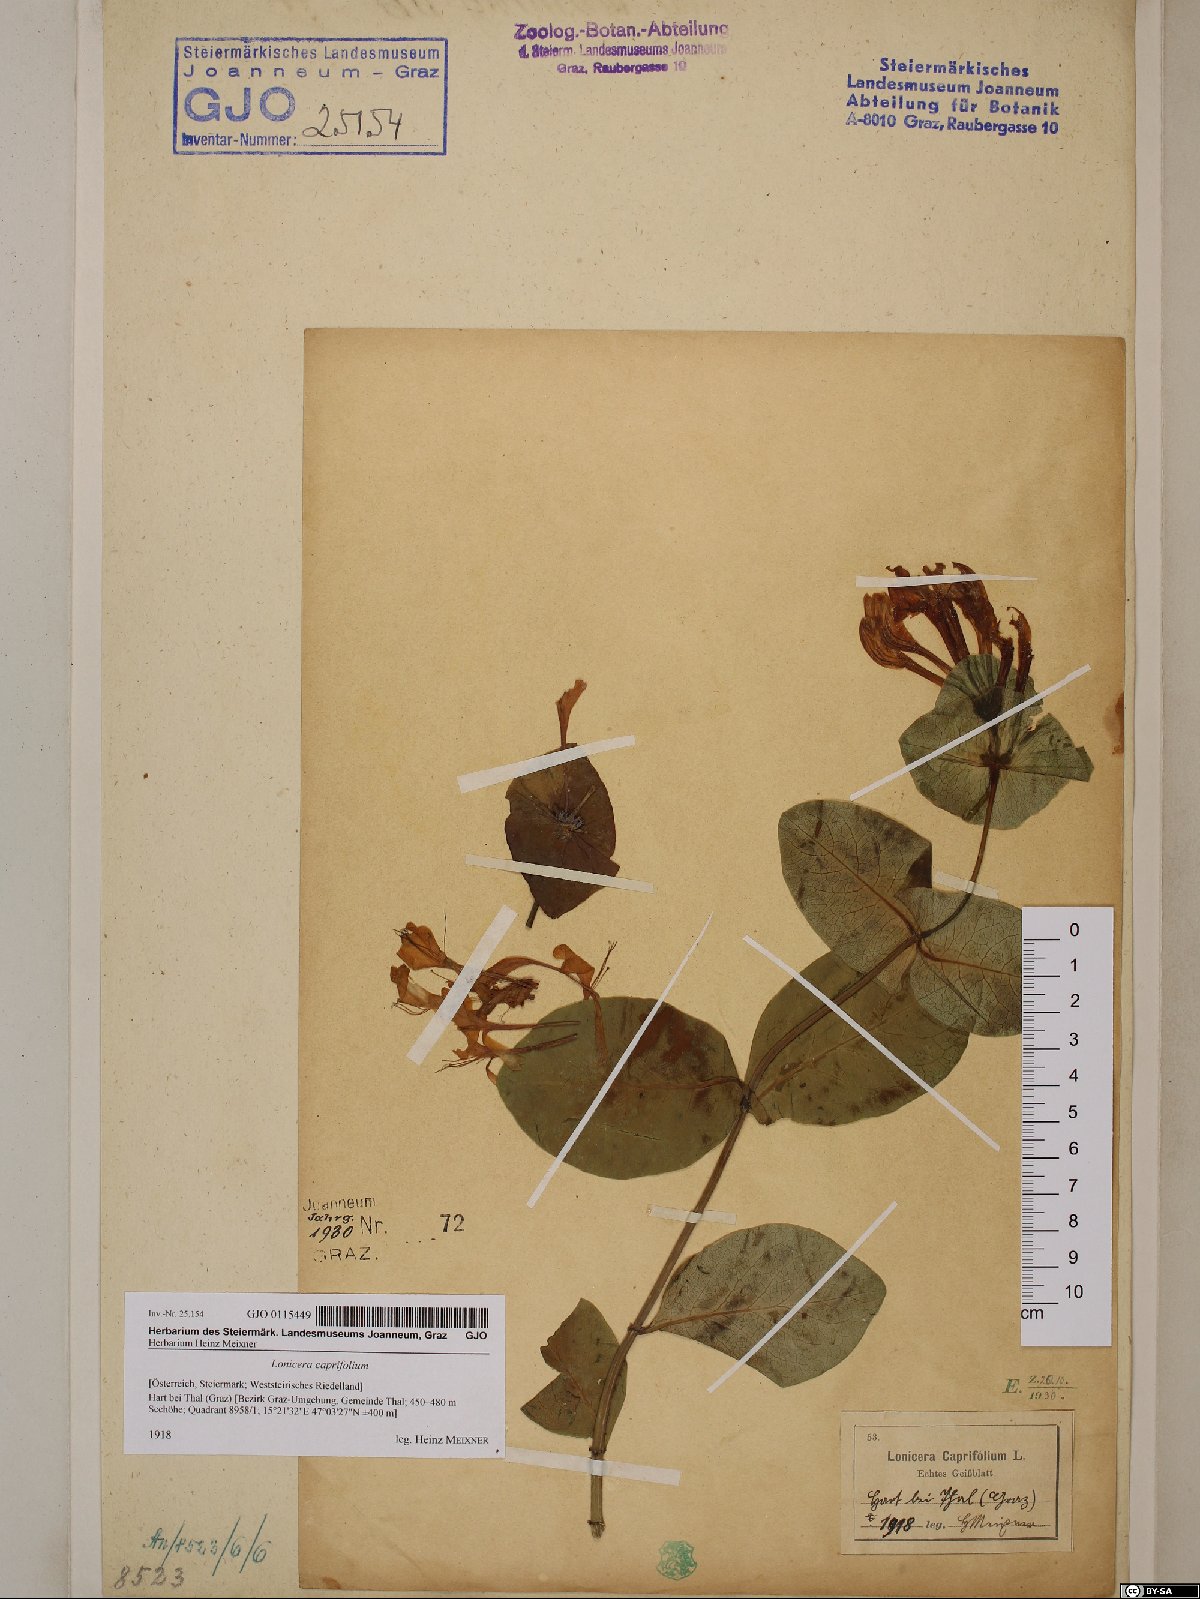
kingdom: Plantae
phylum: Tracheophyta
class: Magnoliopsida
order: Dipsacales
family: Caprifoliaceae
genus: Lonicera
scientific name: Lonicera caprifolium
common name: Perfoliate honeysuckle
